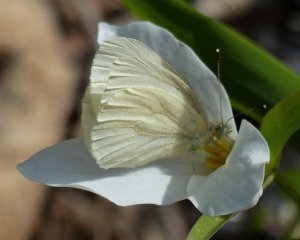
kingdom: Animalia
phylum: Arthropoda
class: Insecta
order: Lepidoptera
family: Pieridae
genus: Pieris
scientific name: Pieris virginiensis
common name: West Virginia White
